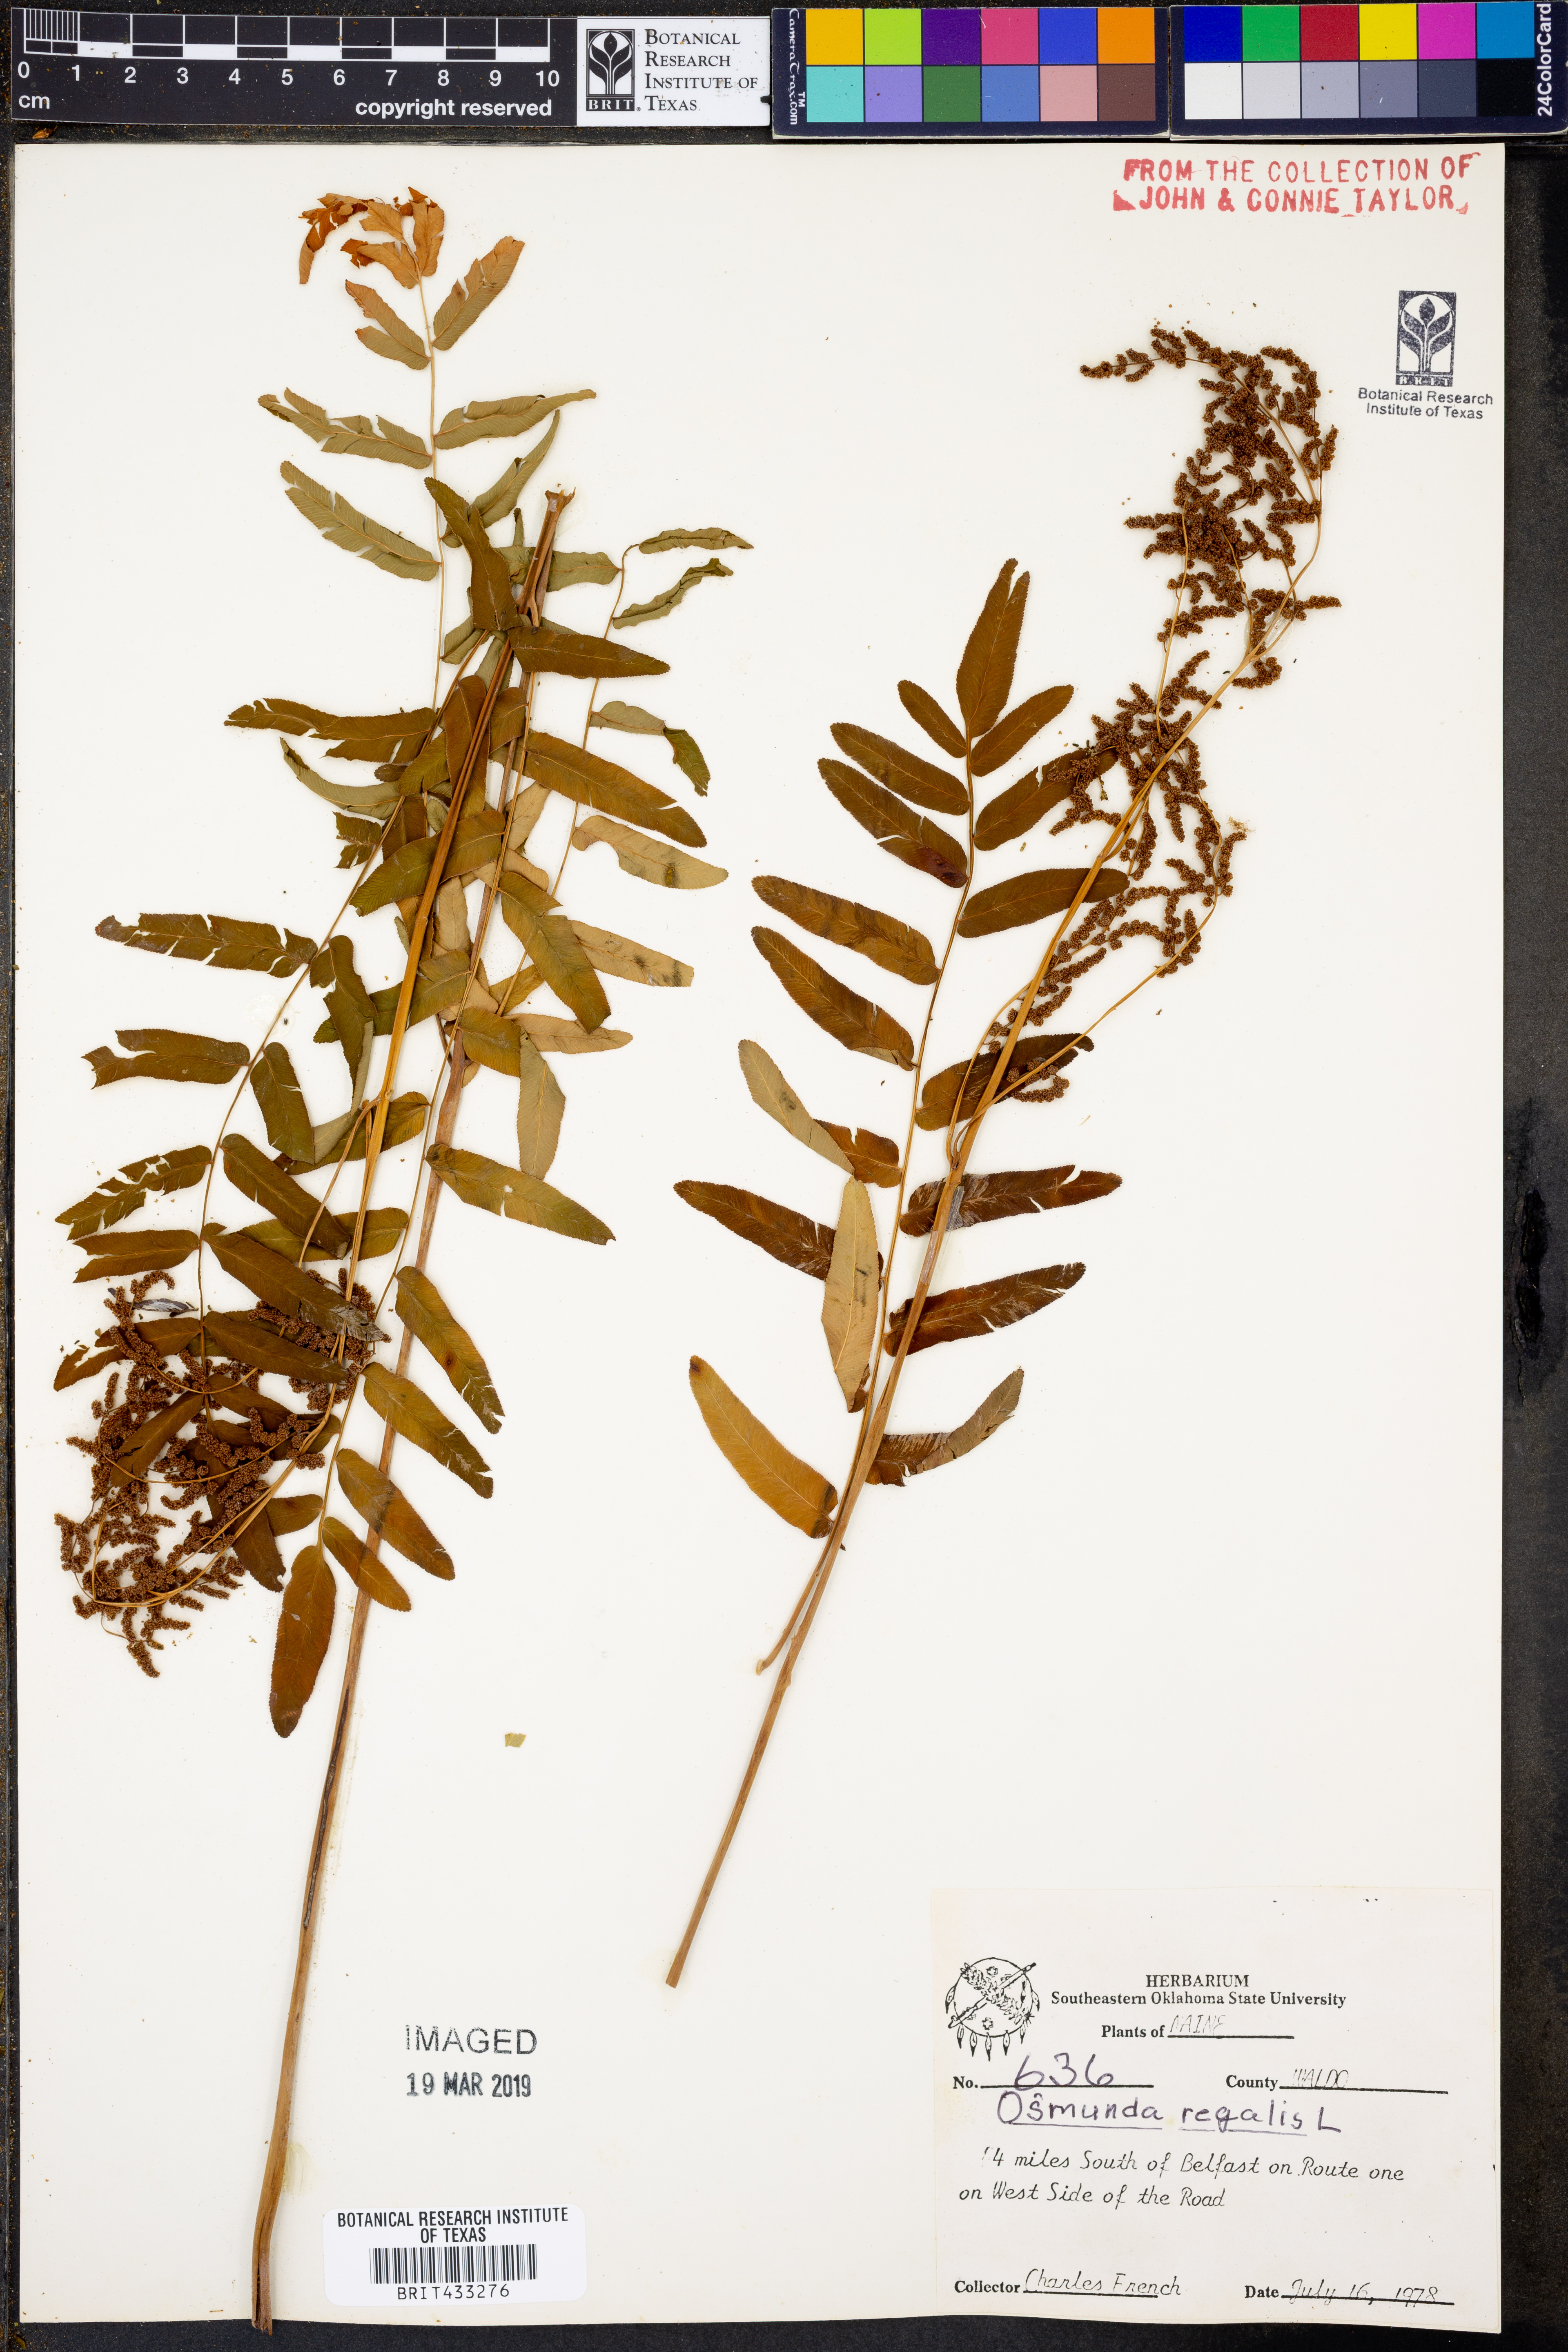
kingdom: Plantae
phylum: Tracheophyta
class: Polypodiopsida
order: Osmundales
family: Osmundaceae
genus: Osmunda
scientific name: Osmunda regalis
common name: Royal fern
